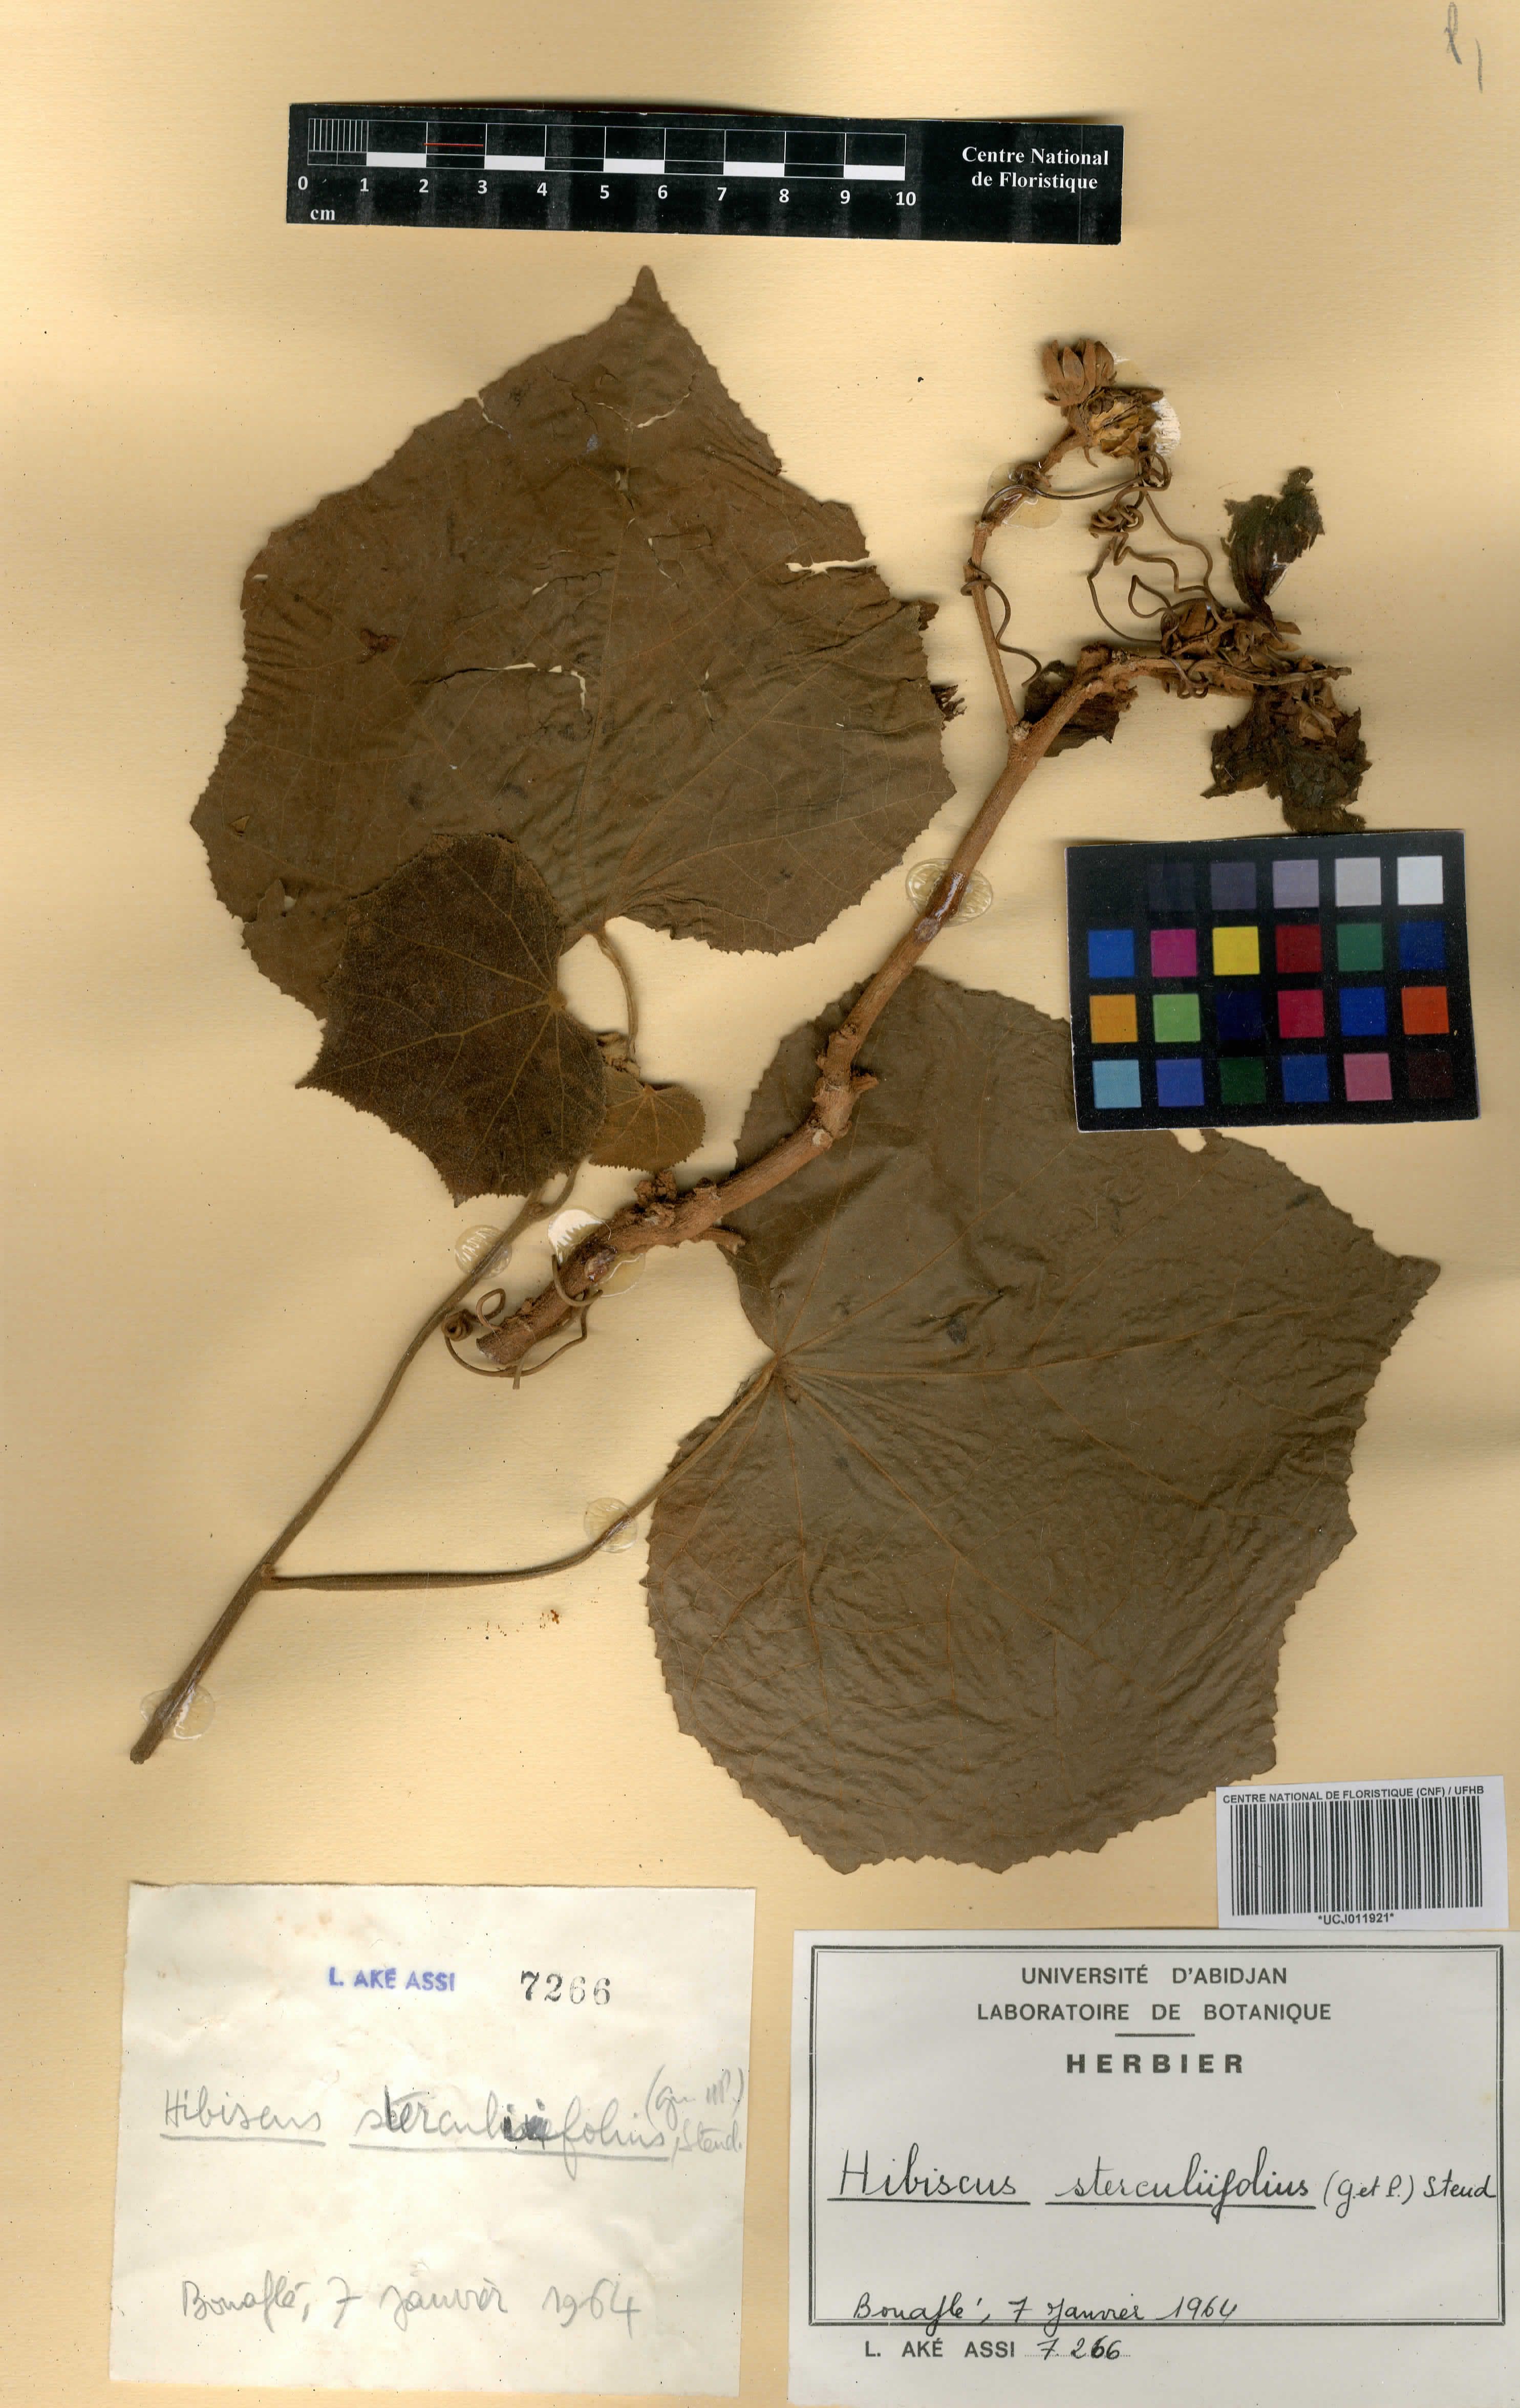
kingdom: Plantae
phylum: Tracheophyta
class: Magnoliopsida
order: Malvales
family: Malvaceae
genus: Hibiscus
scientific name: Hibiscus sterculiifolius
